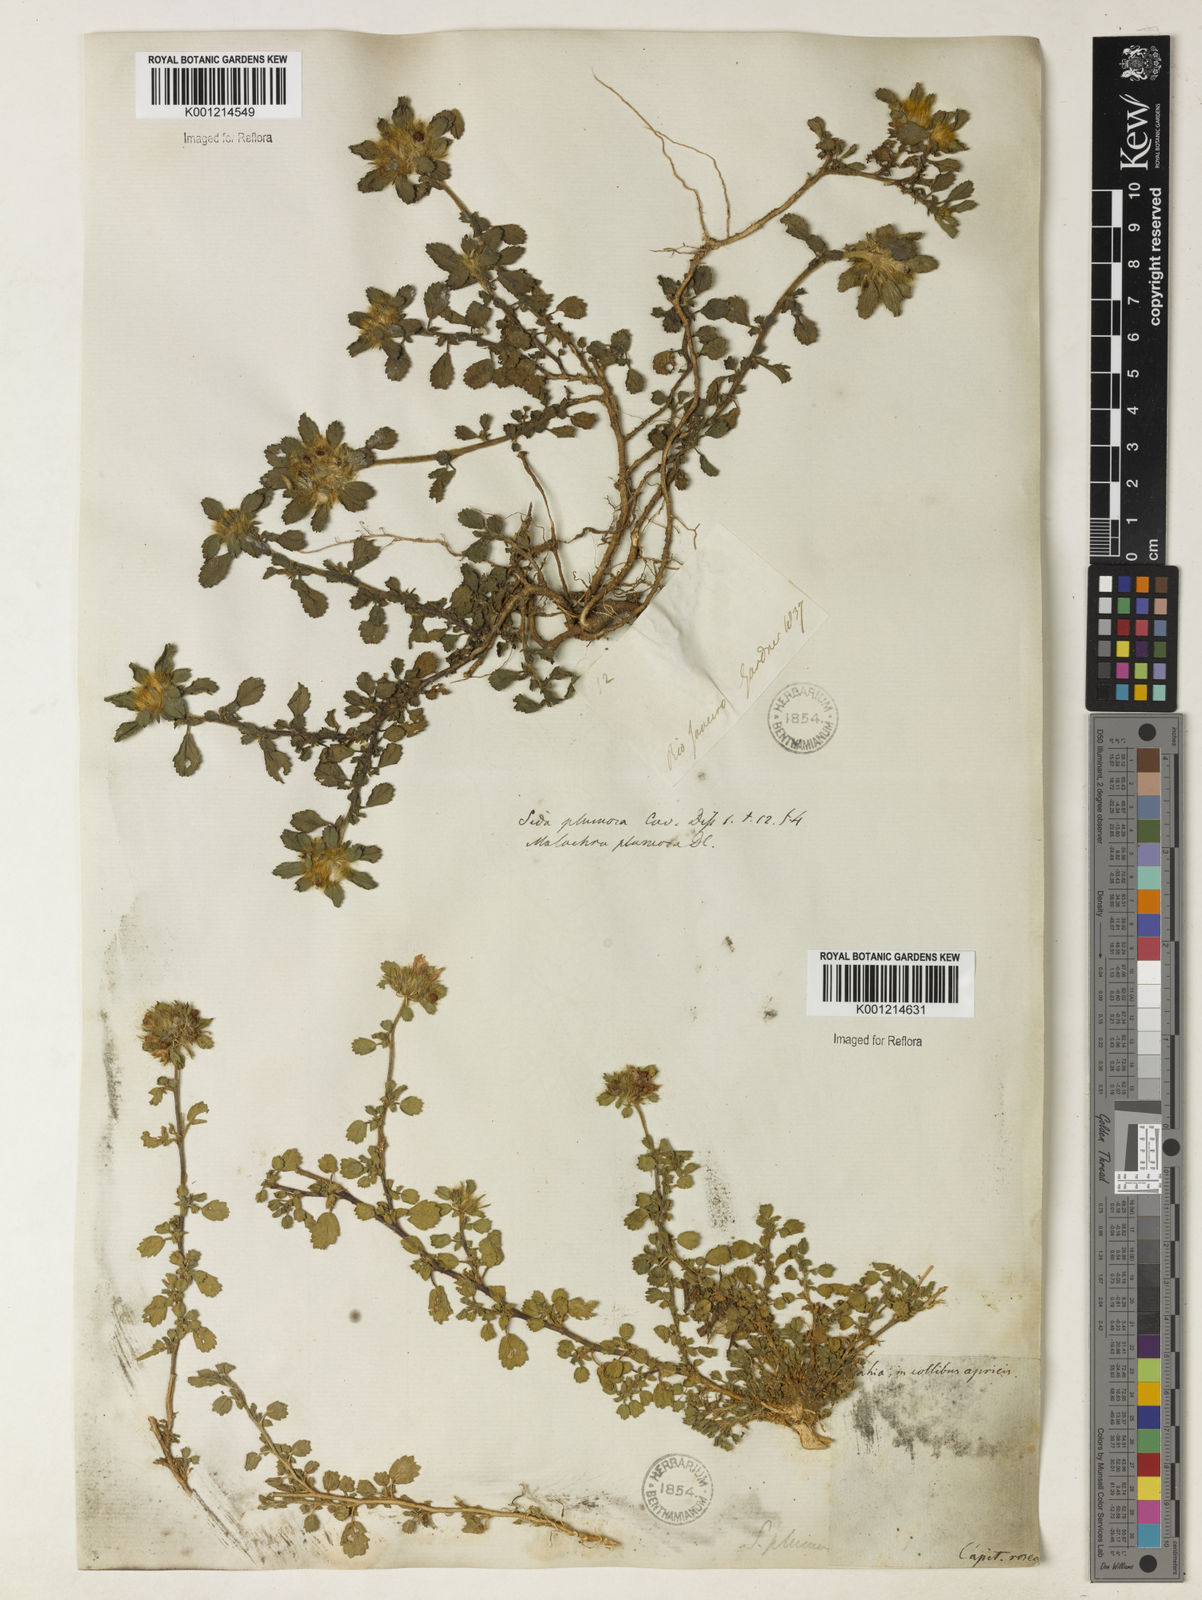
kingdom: Plantae
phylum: Tracheophyta
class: Magnoliopsida
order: Malvales
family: Malvaceae
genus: Sida
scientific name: Sida ciliaris
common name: Bracted fanpetals
